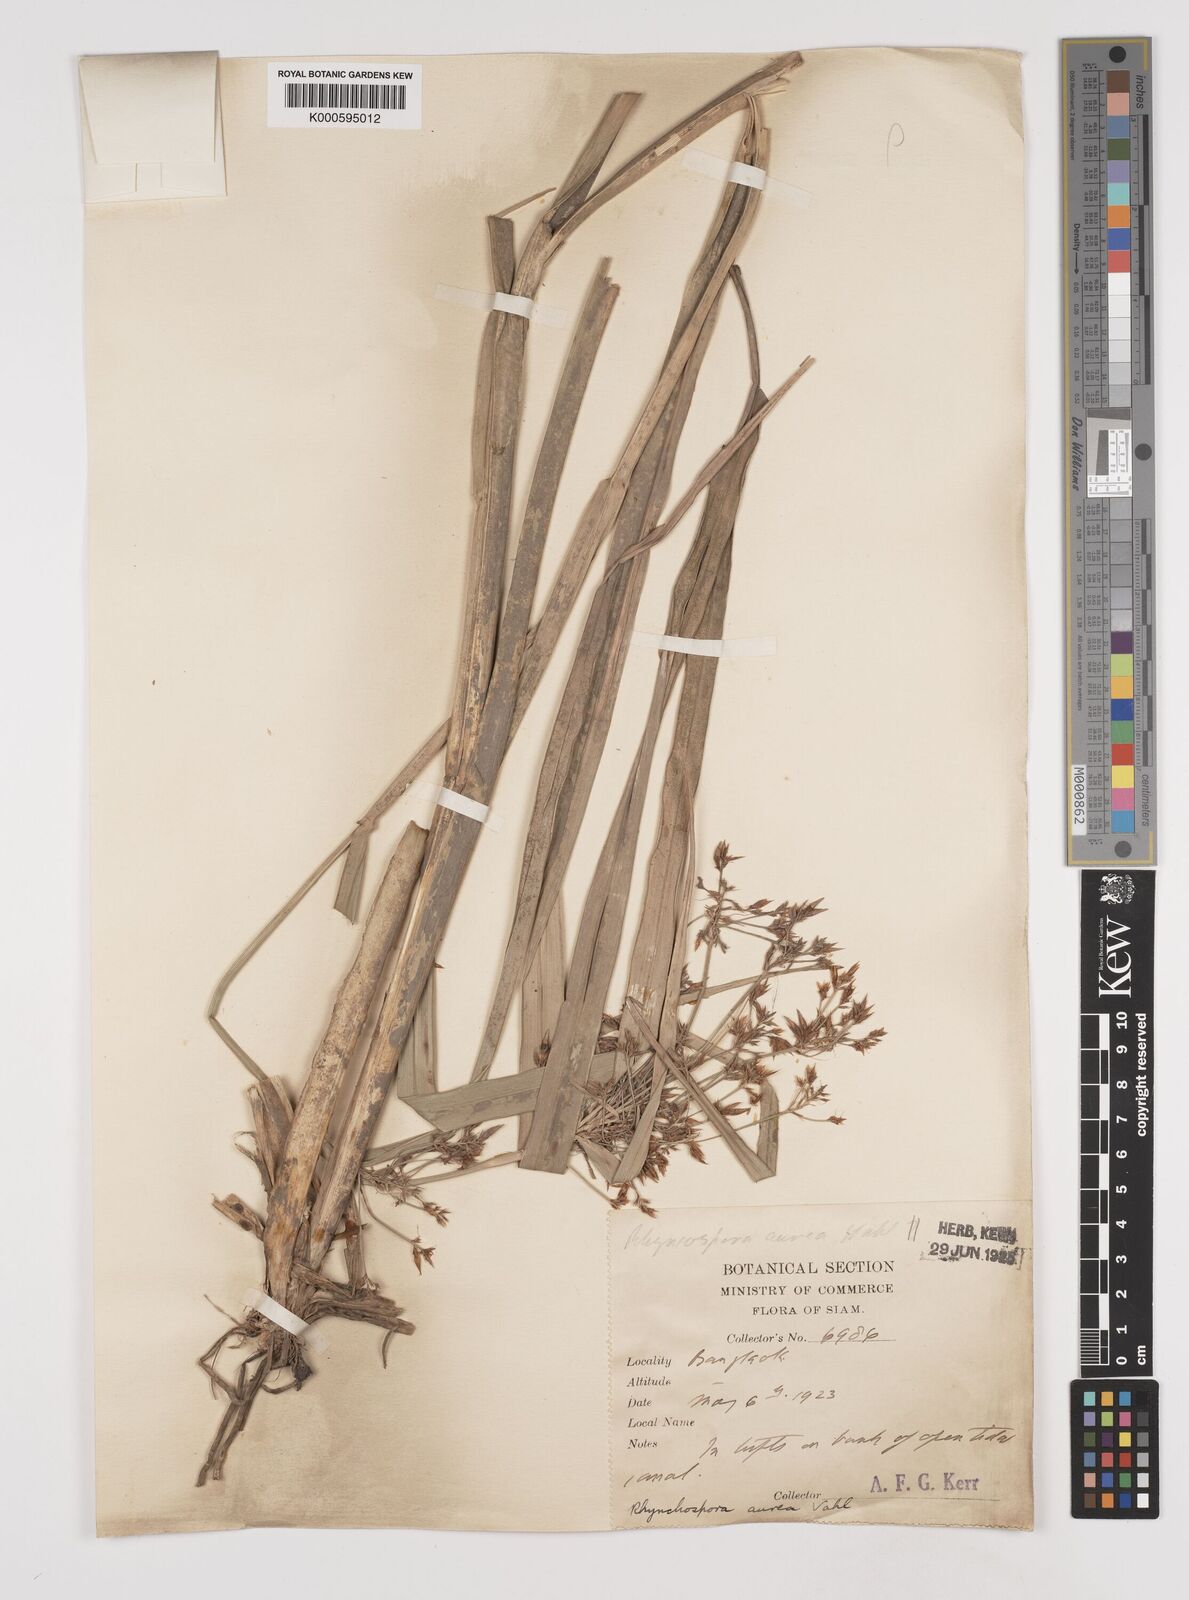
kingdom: Plantae
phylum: Tracheophyta
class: Liliopsida
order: Poales
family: Cyperaceae
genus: Rhynchospora
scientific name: Rhynchospora corymbosa
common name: Golden beak sedge
